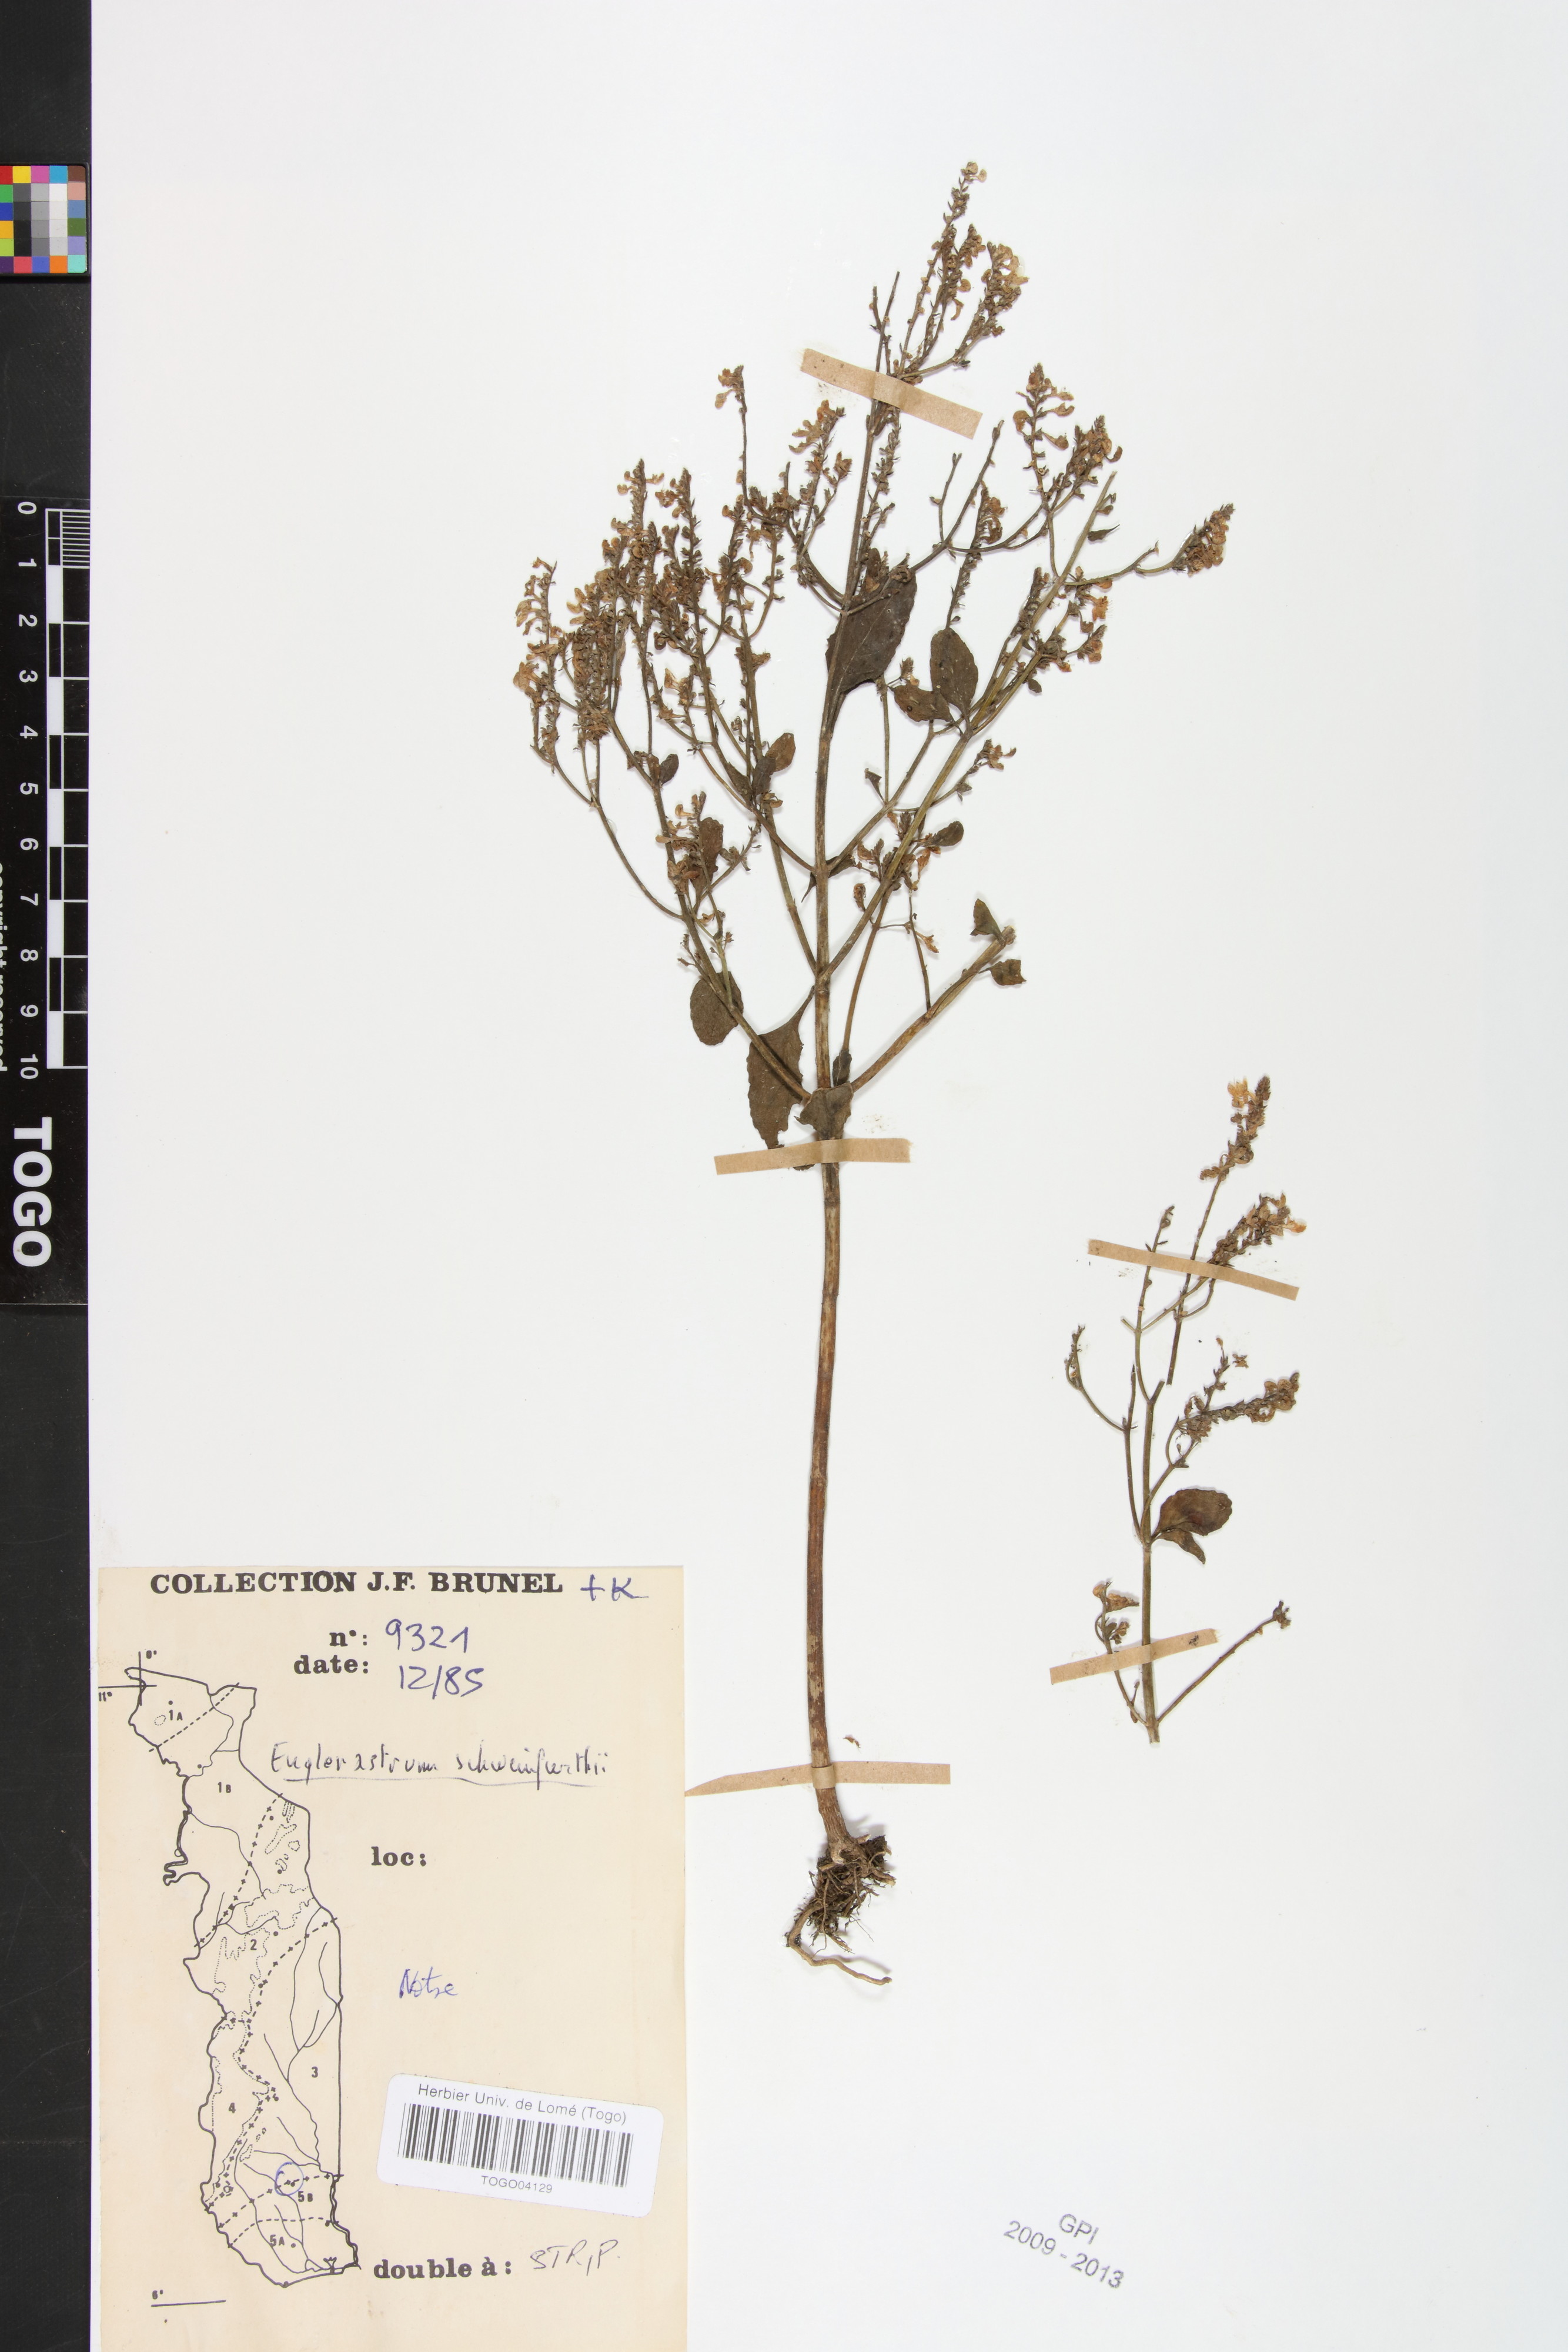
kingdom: Plantae
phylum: Tracheophyta
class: Magnoliopsida
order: Lamiales
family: Lamiaceae
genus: Coleus
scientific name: Coleus rhodesianum
